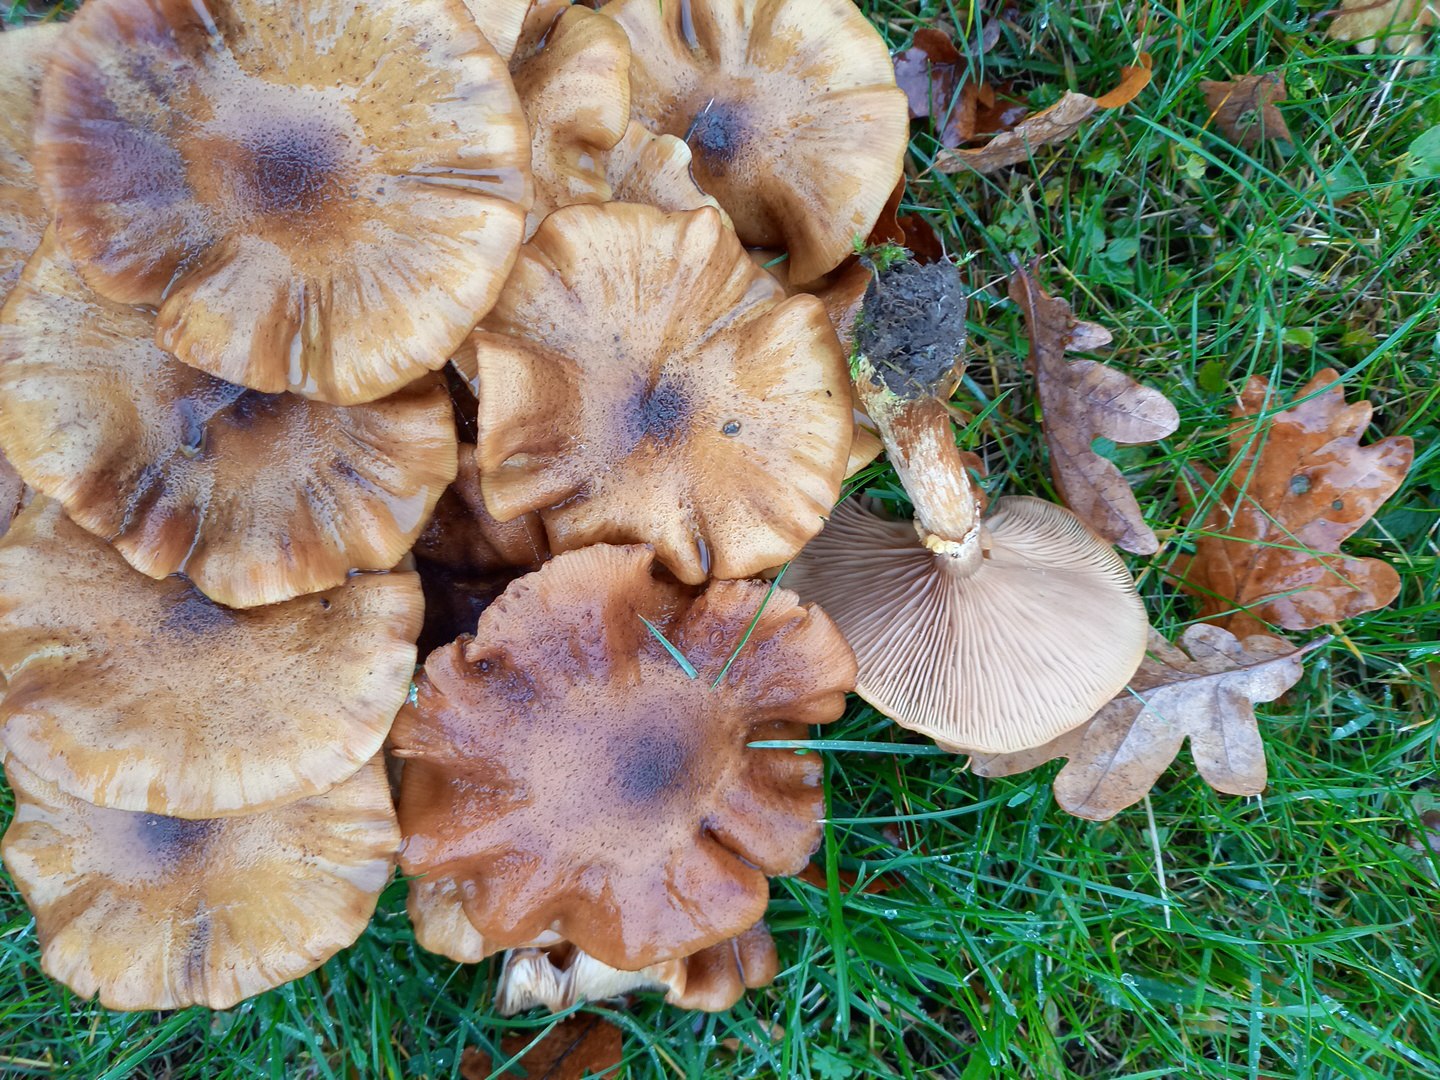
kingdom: Fungi
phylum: Basidiomycota
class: Agaricomycetes
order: Agaricales
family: Physalacriaceae
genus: Armillaria
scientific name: Armillaria lutea
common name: køllestokket honningsvamp
